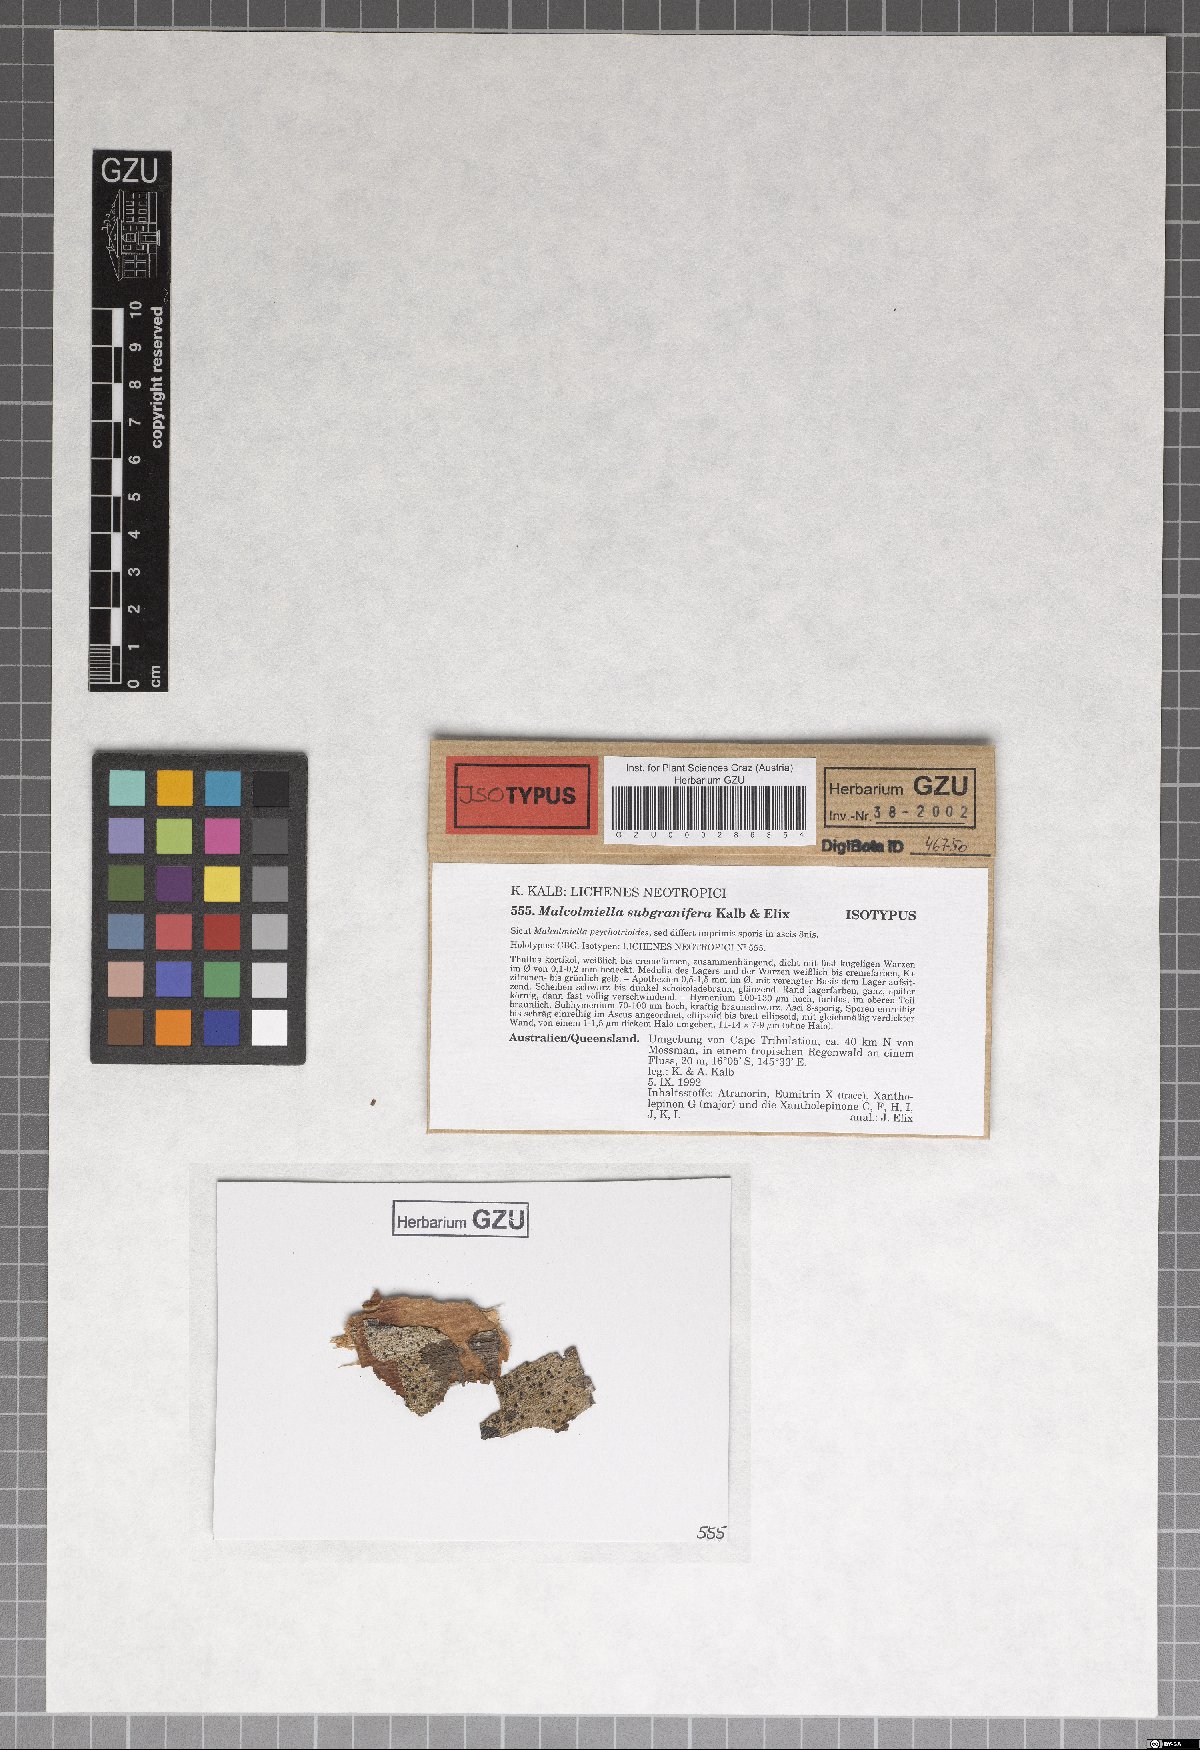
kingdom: Fungi
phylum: Ascomycota
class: Lecanoromycetes
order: Lecanorales
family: Malmideaceae
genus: Malmidea
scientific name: Malmidea subgranifera
